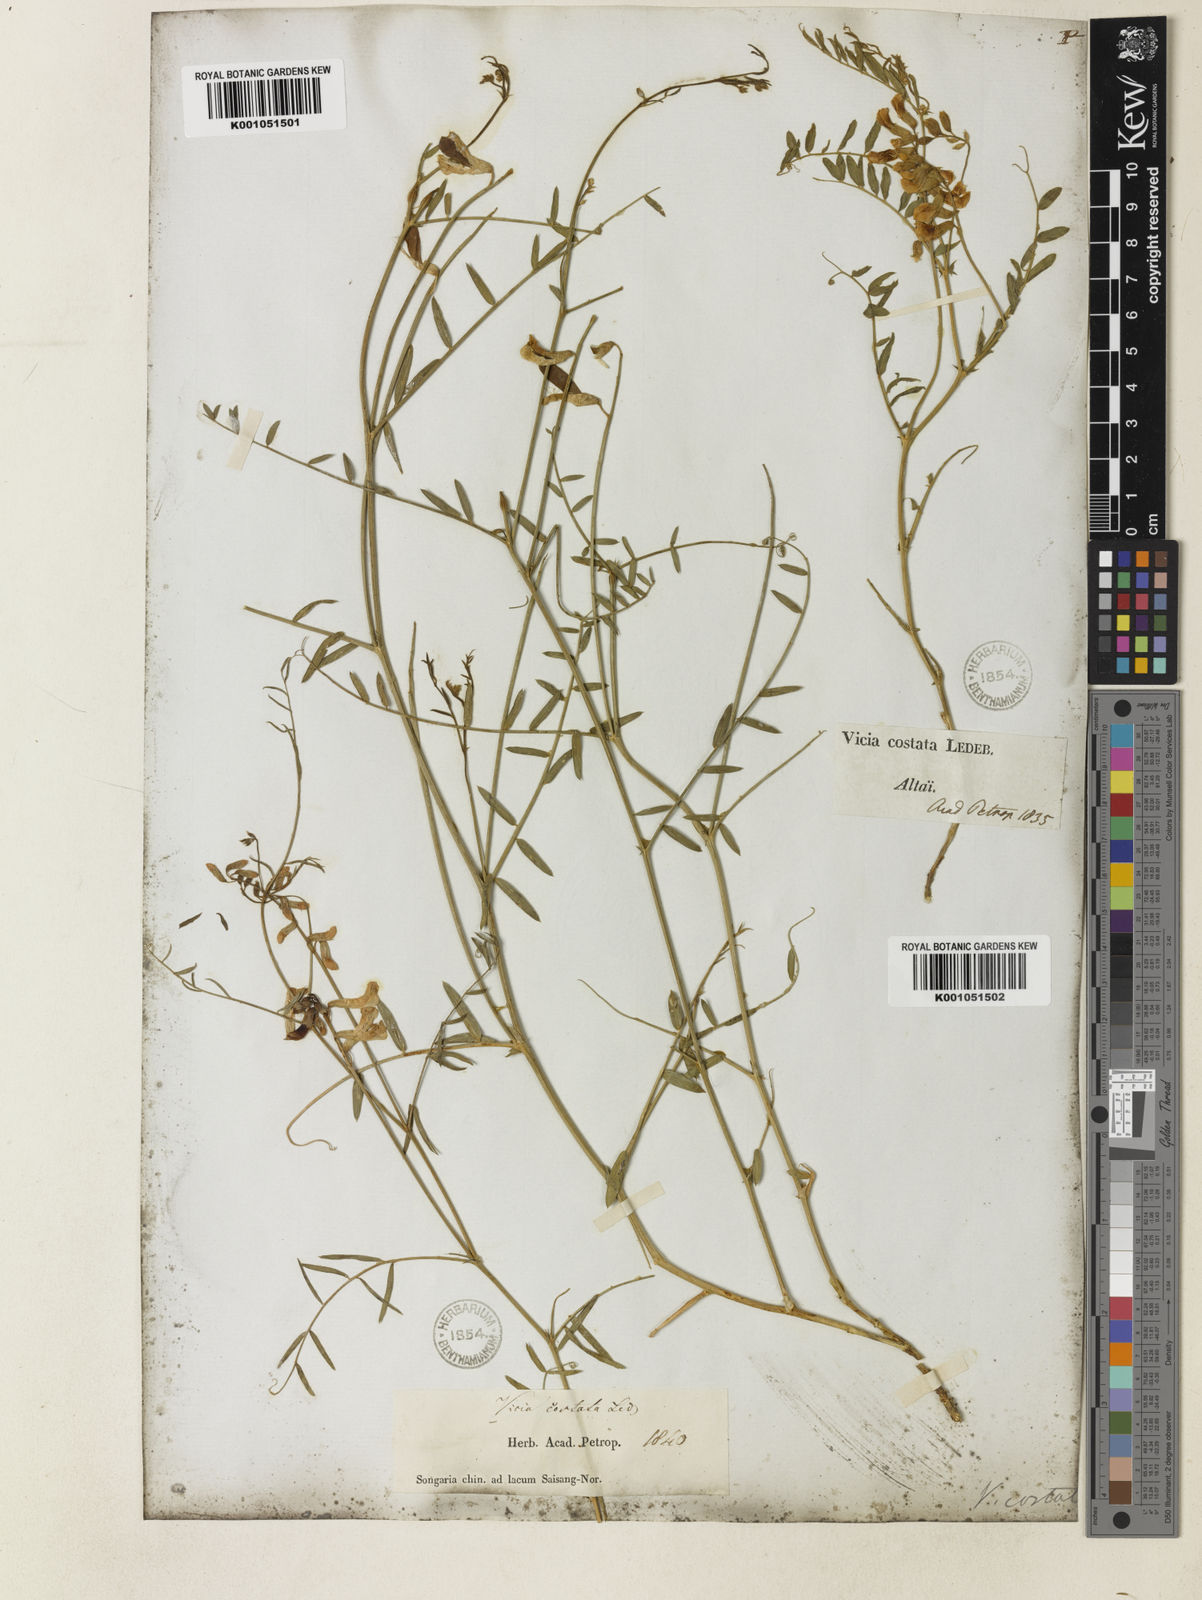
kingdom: Plantae
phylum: Tracheophyta
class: Magnoliopsida
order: Fabales
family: Fabaceae
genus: Vicia
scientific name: Vicia costata
